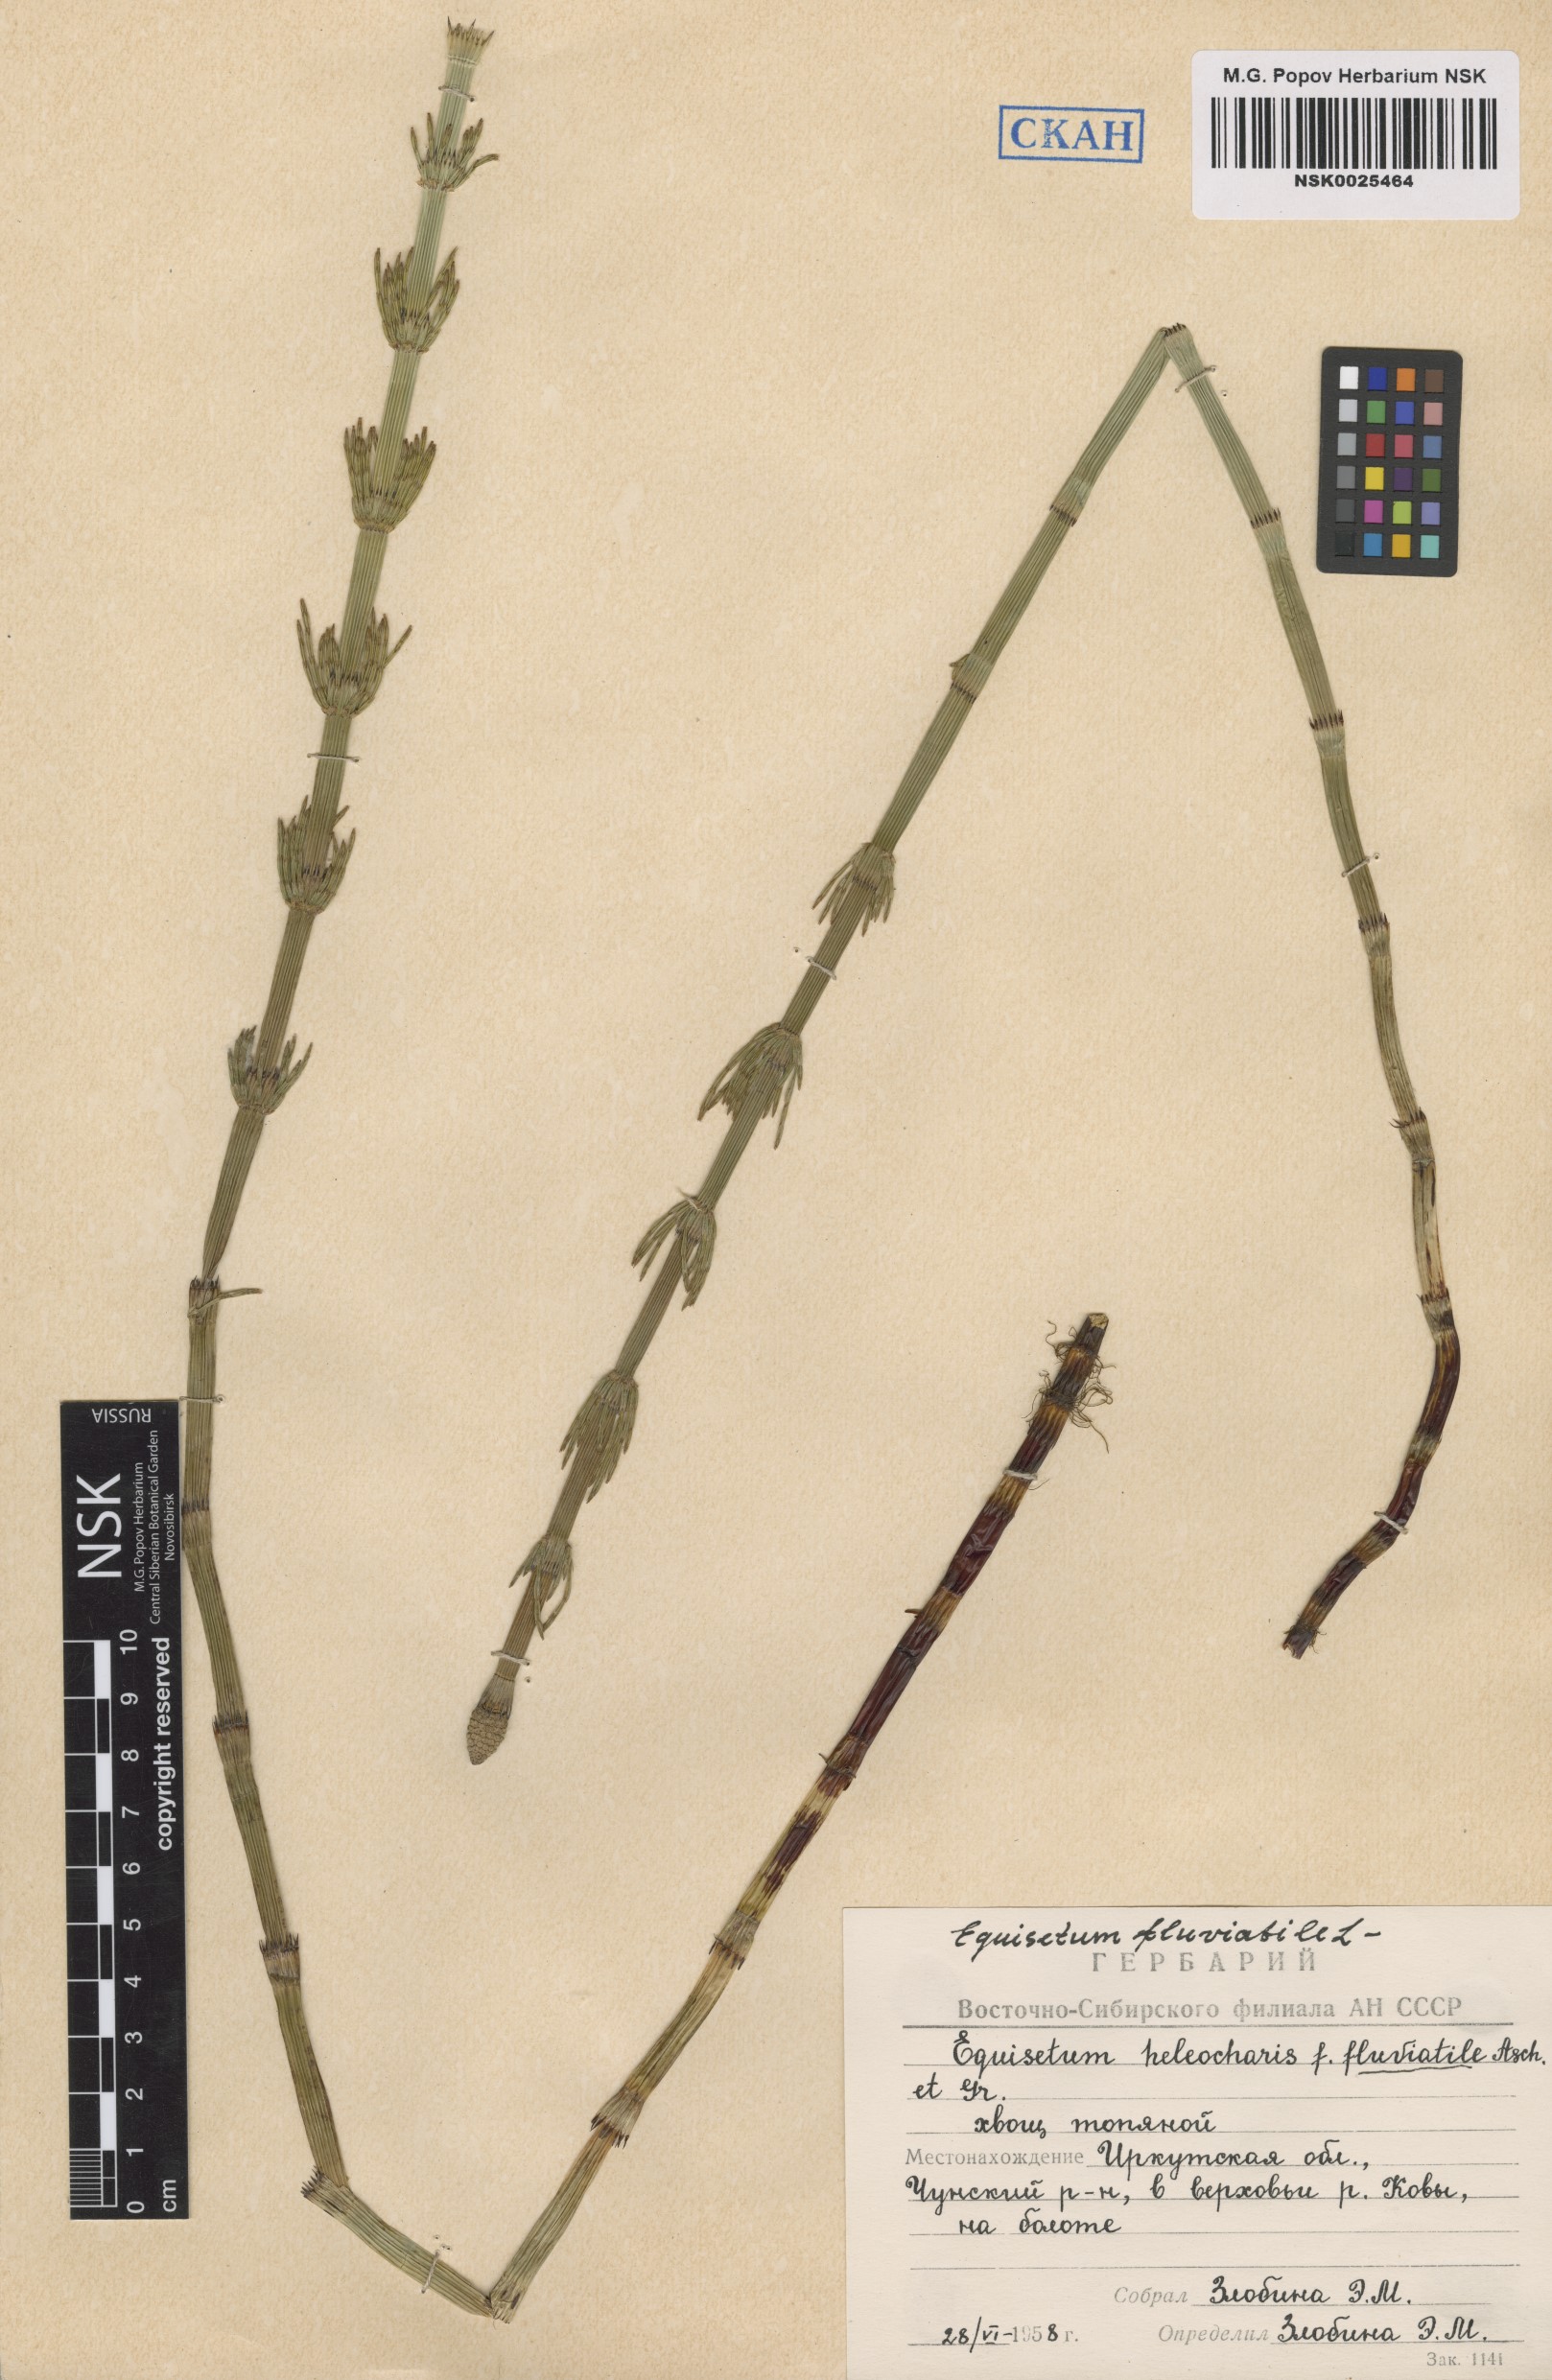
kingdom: Plantae
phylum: Tracheophyta
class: Polypodiopsida
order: Equisetales
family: Equisetaceae
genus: Equisetum
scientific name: Equisetum fluviatile
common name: Water horsetail
